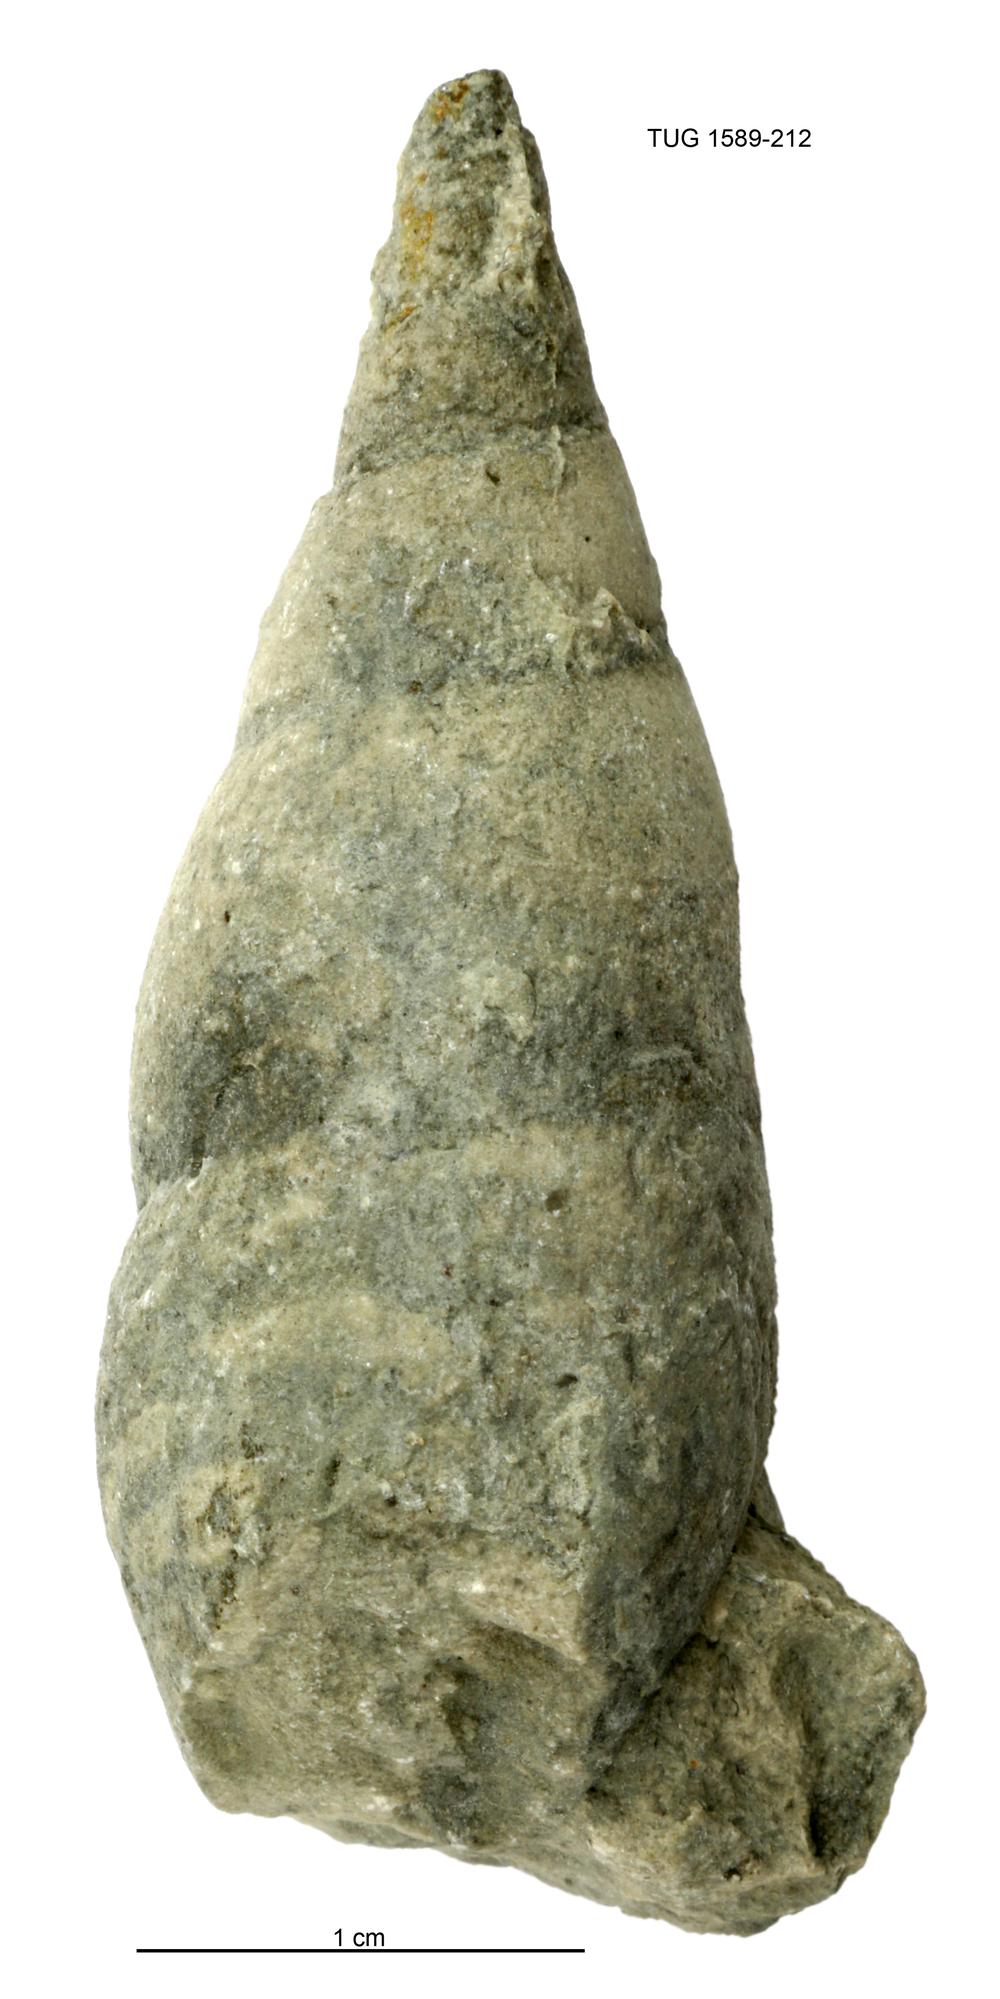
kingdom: Animalia
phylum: Mollusca
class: Gastropoda
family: Subulitidae
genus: Subulites
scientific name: Subulites amphora
